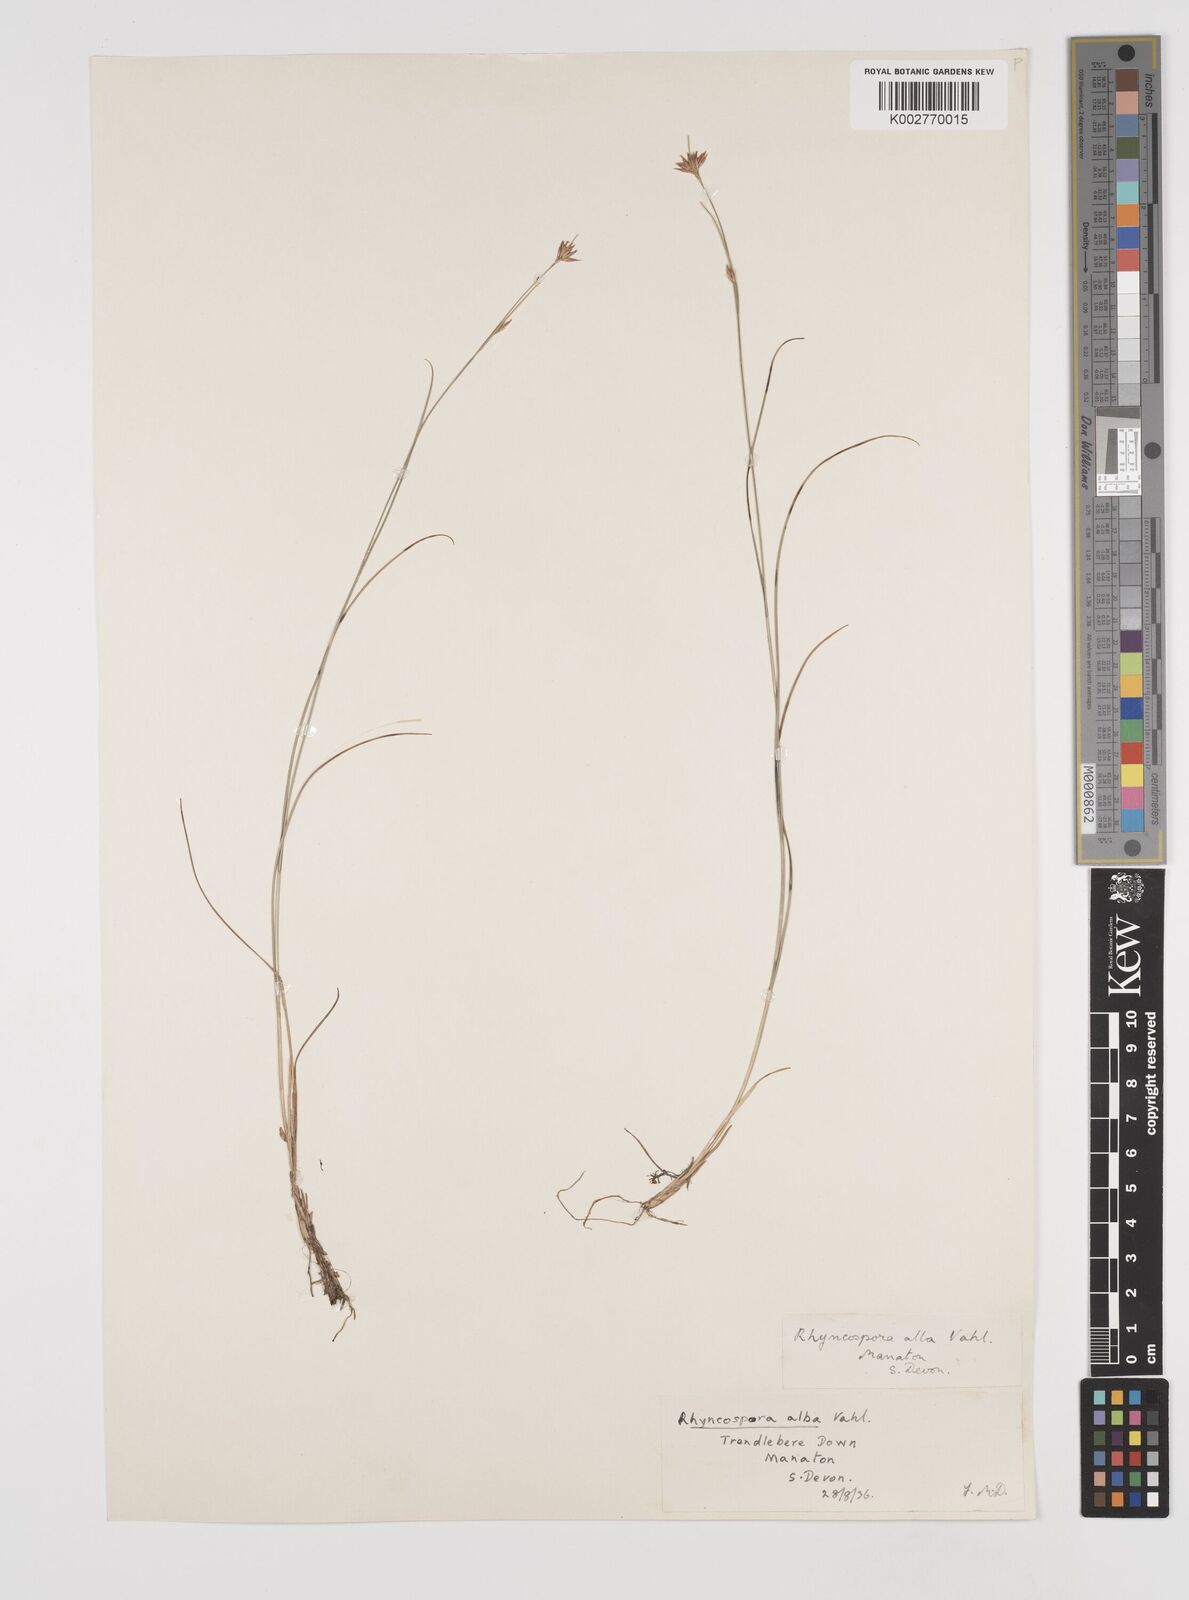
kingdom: Plantae
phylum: Tracheophyta
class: Liliopsida
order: Poales
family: Cyperaceae
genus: Rhynchospora
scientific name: Rhynchospora alba
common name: White beak-sedge
